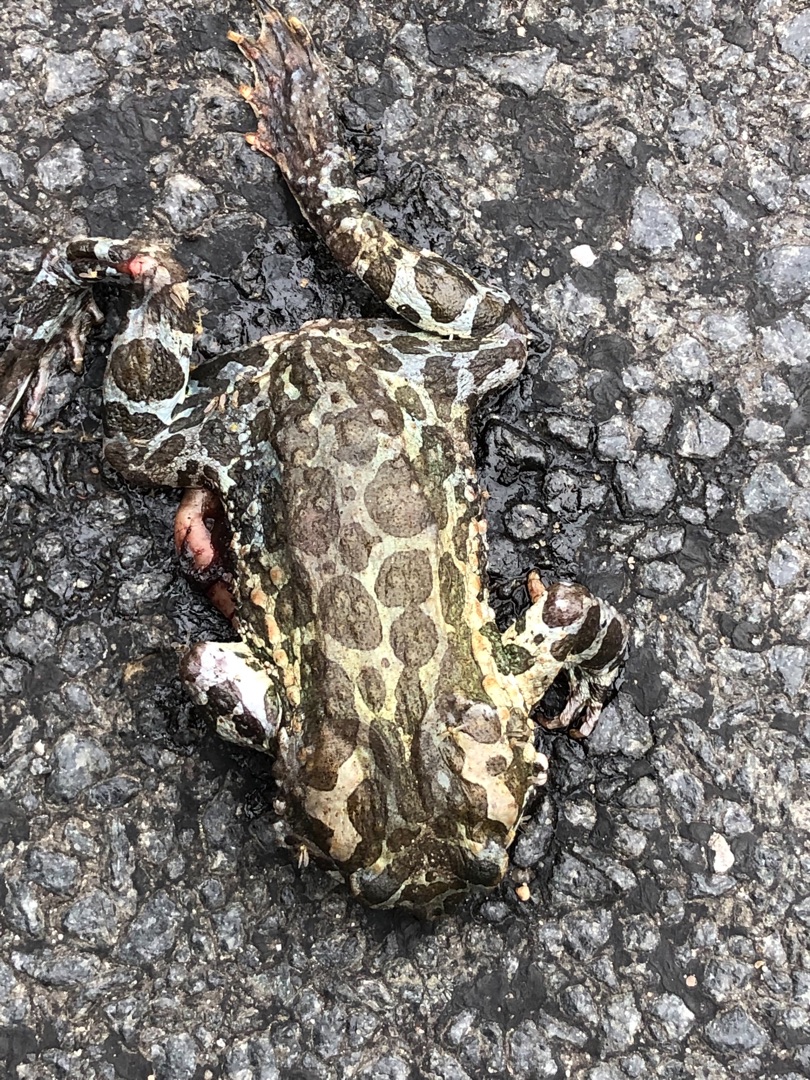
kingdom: Animalia
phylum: Chordata
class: Amphibia
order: Anura
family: Bufonidae
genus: Bufotes
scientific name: Bufotes viridis
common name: Grønbroget tudse
